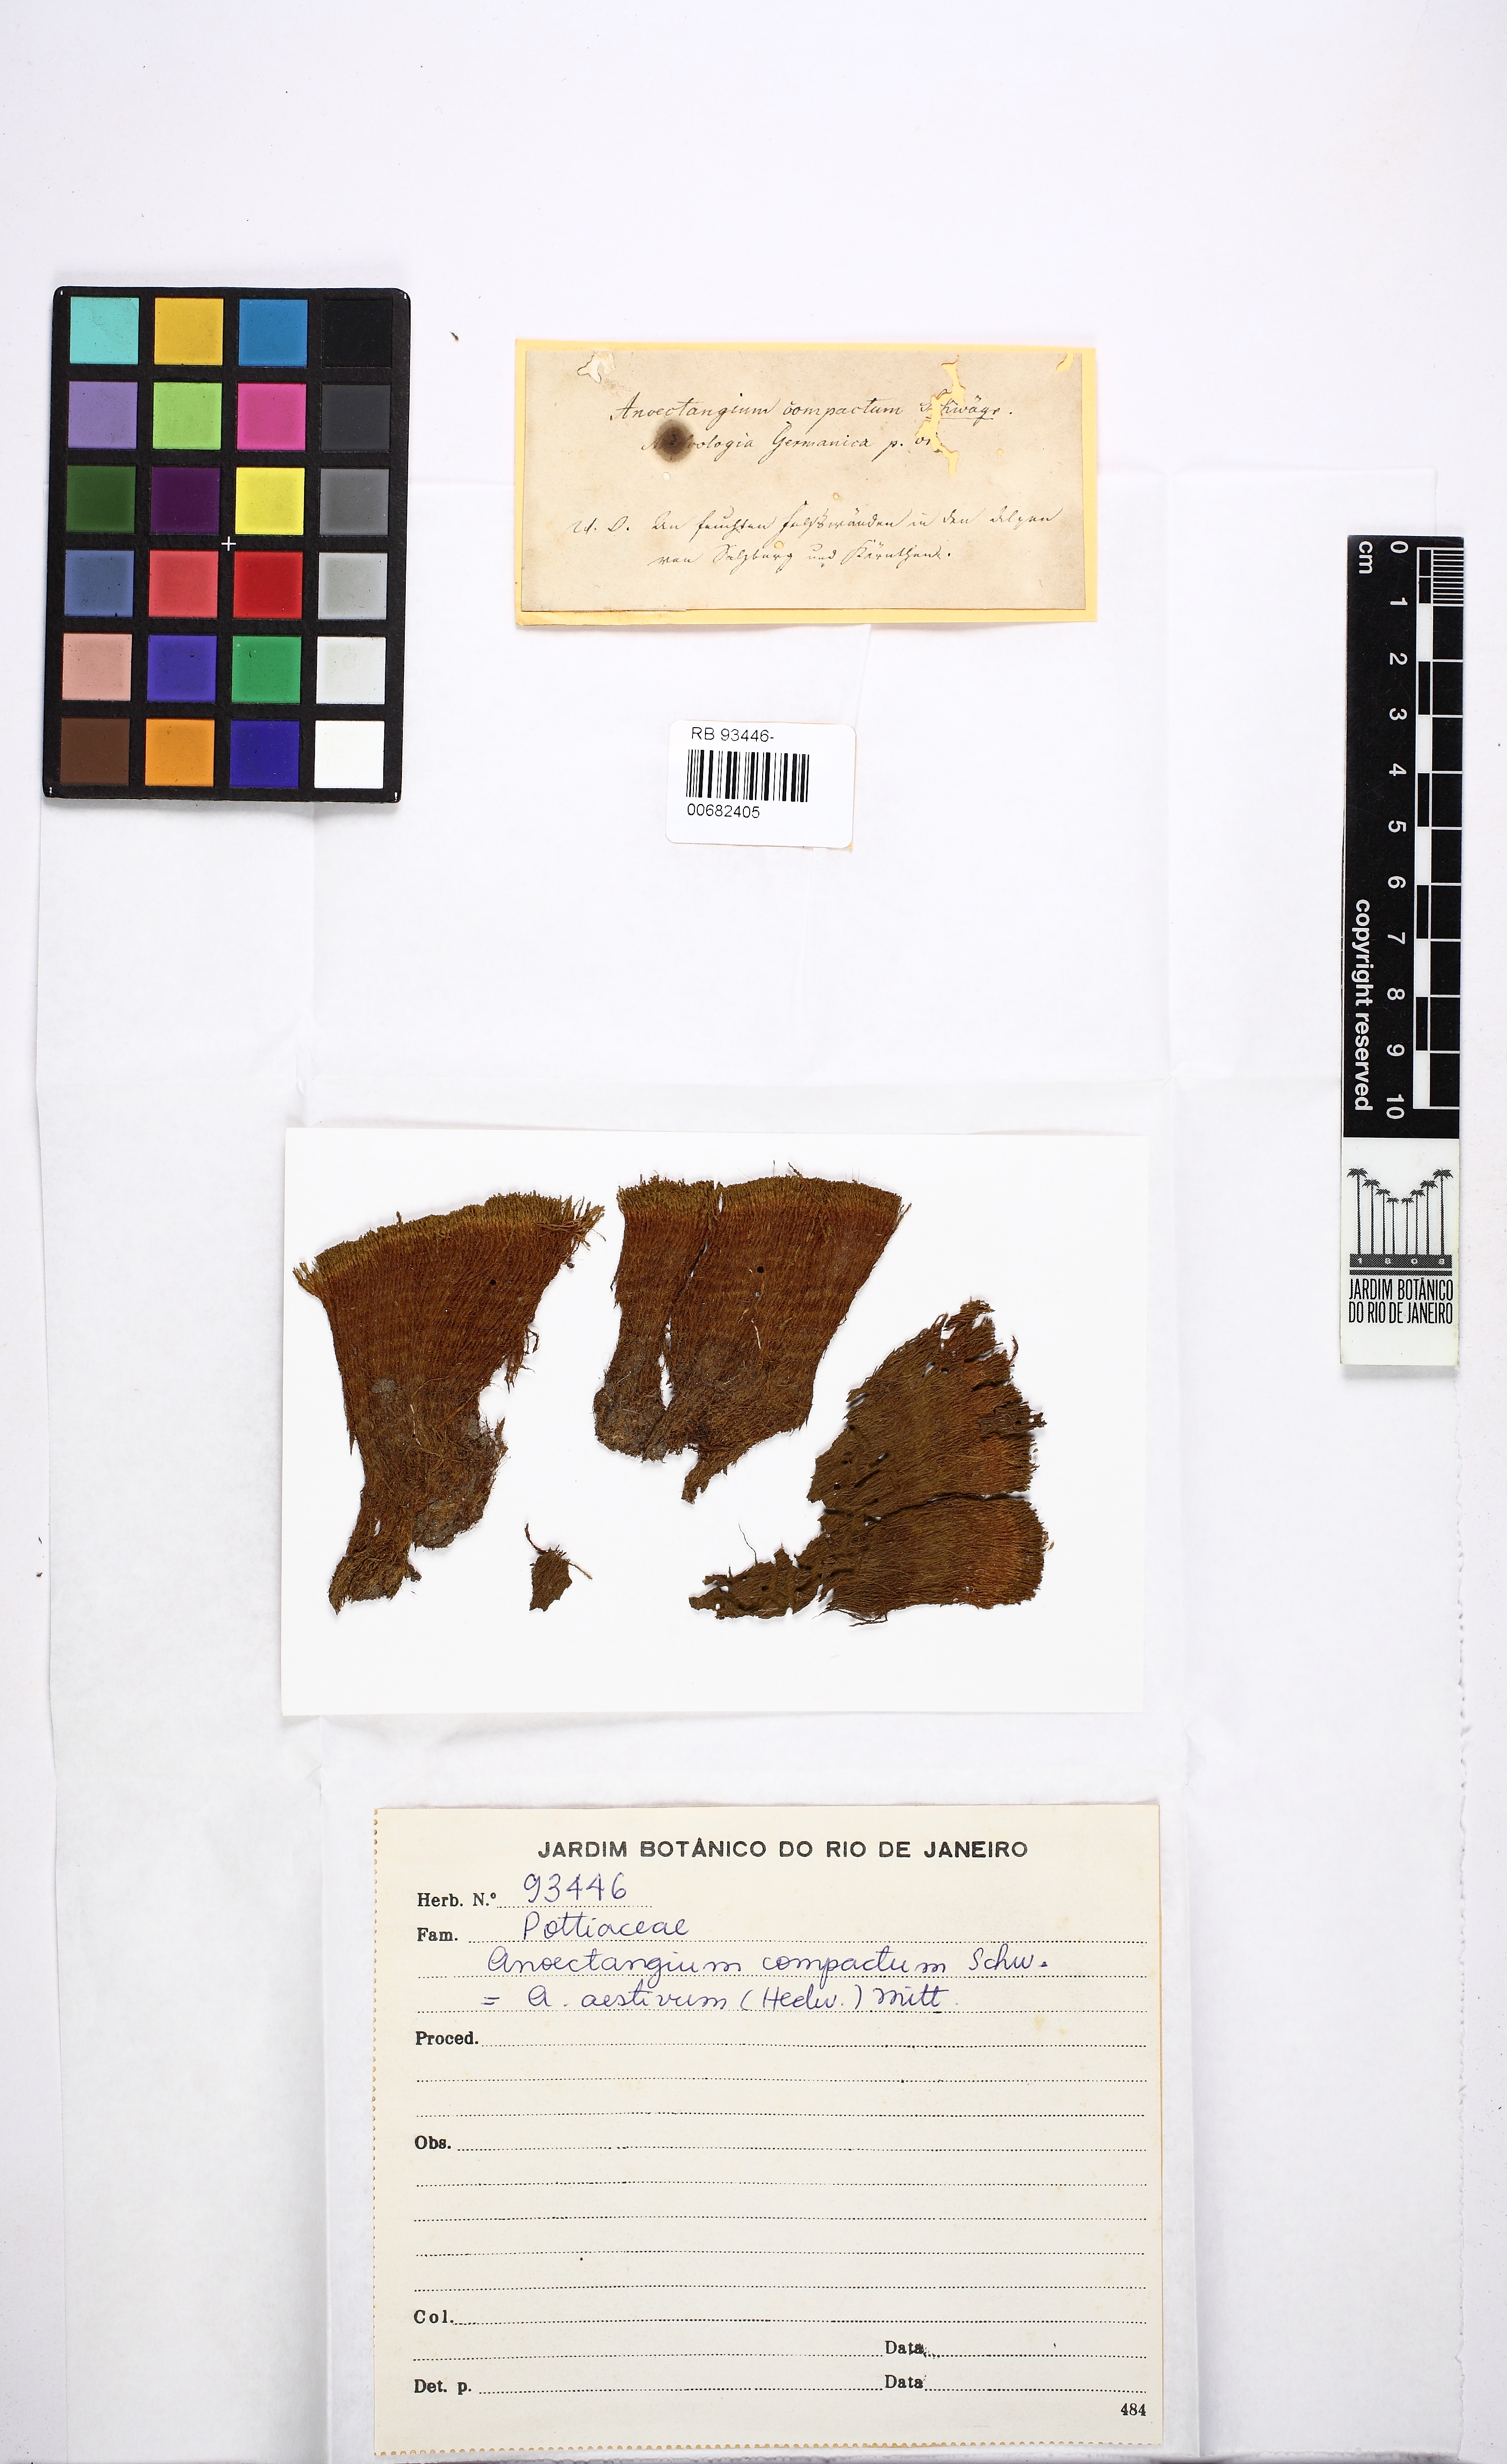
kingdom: Plantae
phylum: Bryophyta
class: Bryopsida
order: Pottiales
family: Pottiaceae
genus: Anoectangium
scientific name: Anoectangium aestivum
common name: Summer-moss
